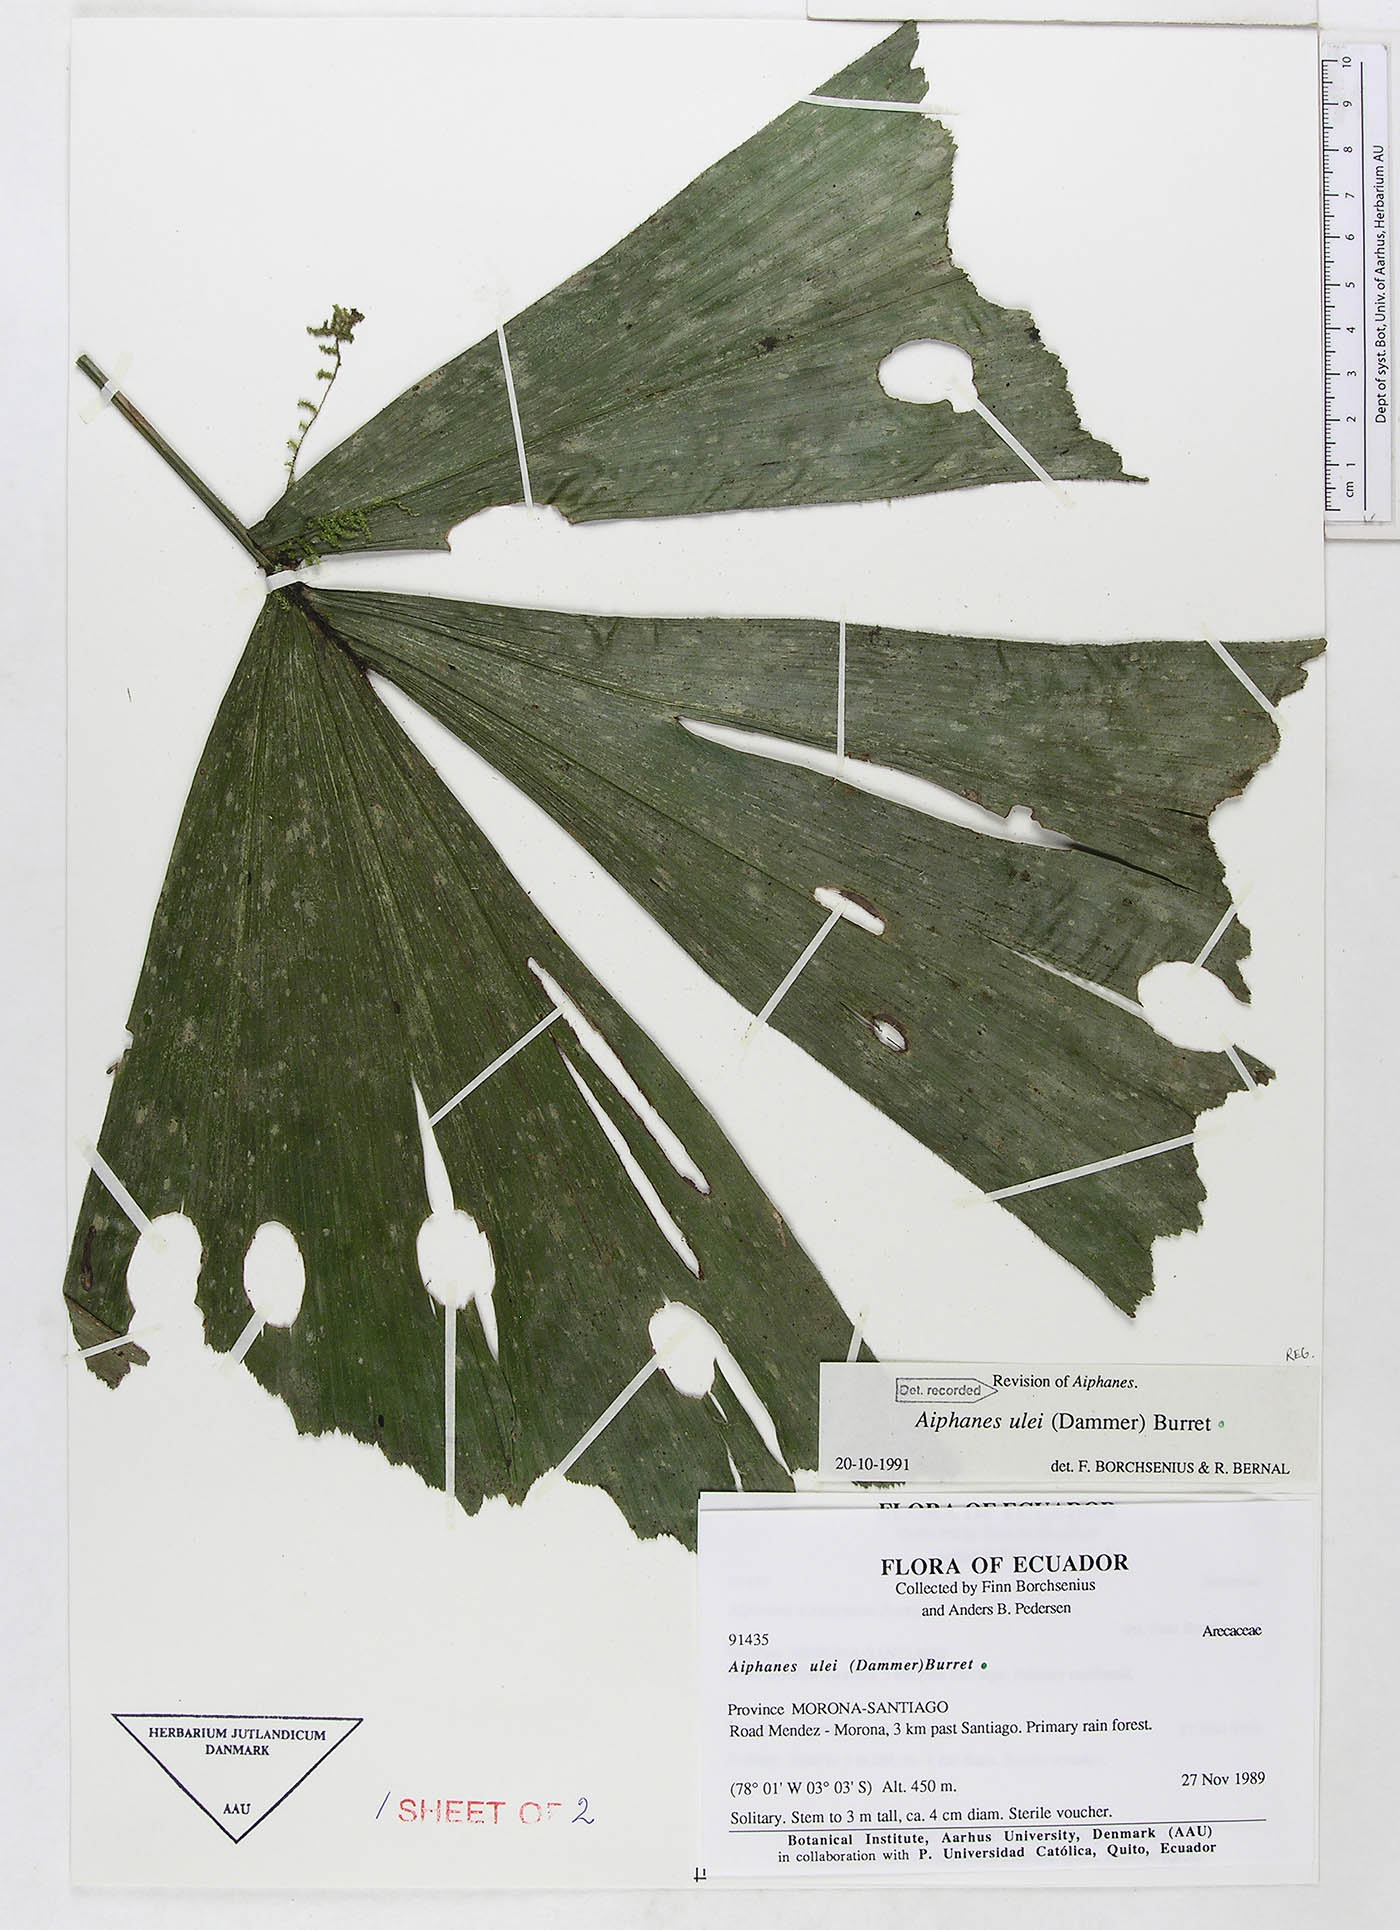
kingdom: Plantae
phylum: Tracheophyta
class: Liliopsida
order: Arecales
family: Arecaceae
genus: Aiphanes
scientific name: Aiphanes ulei
